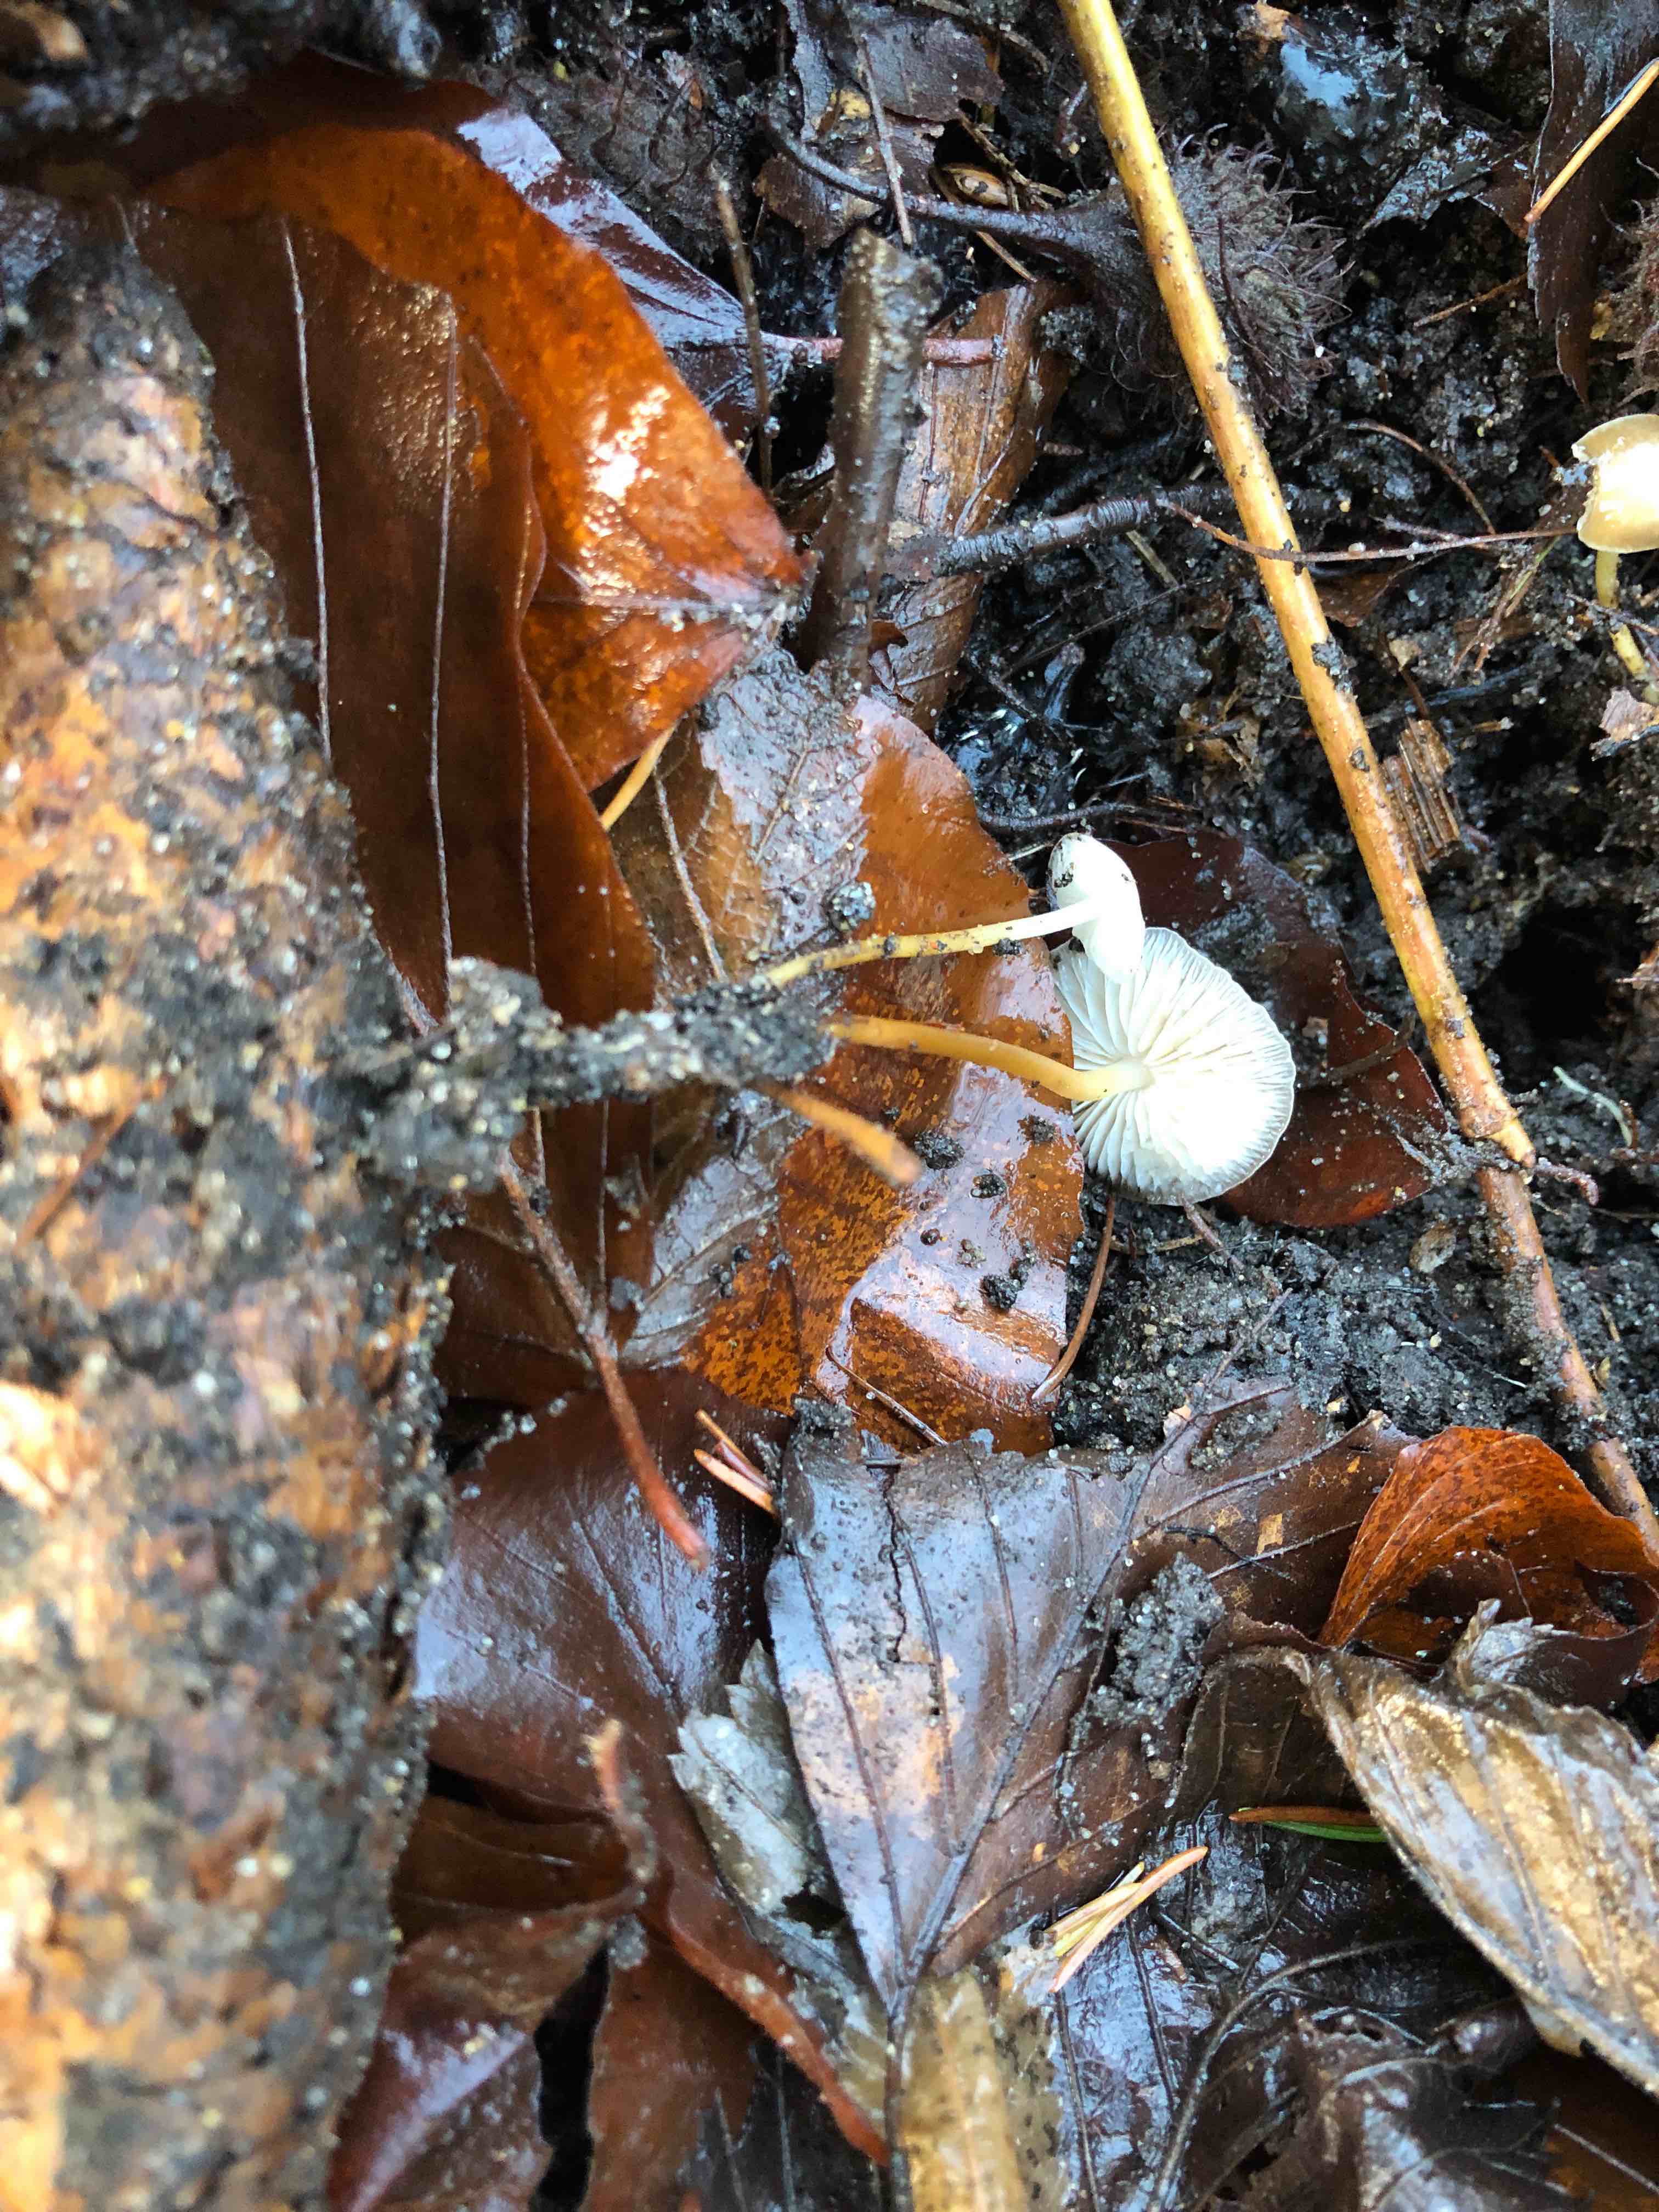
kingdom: Fungi
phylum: Basidiomycota
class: Agaricomycetes
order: Agaricales
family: Physalacriaceae
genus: Strobilurus
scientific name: Strobilurus esculentus
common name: gran-koglehat
